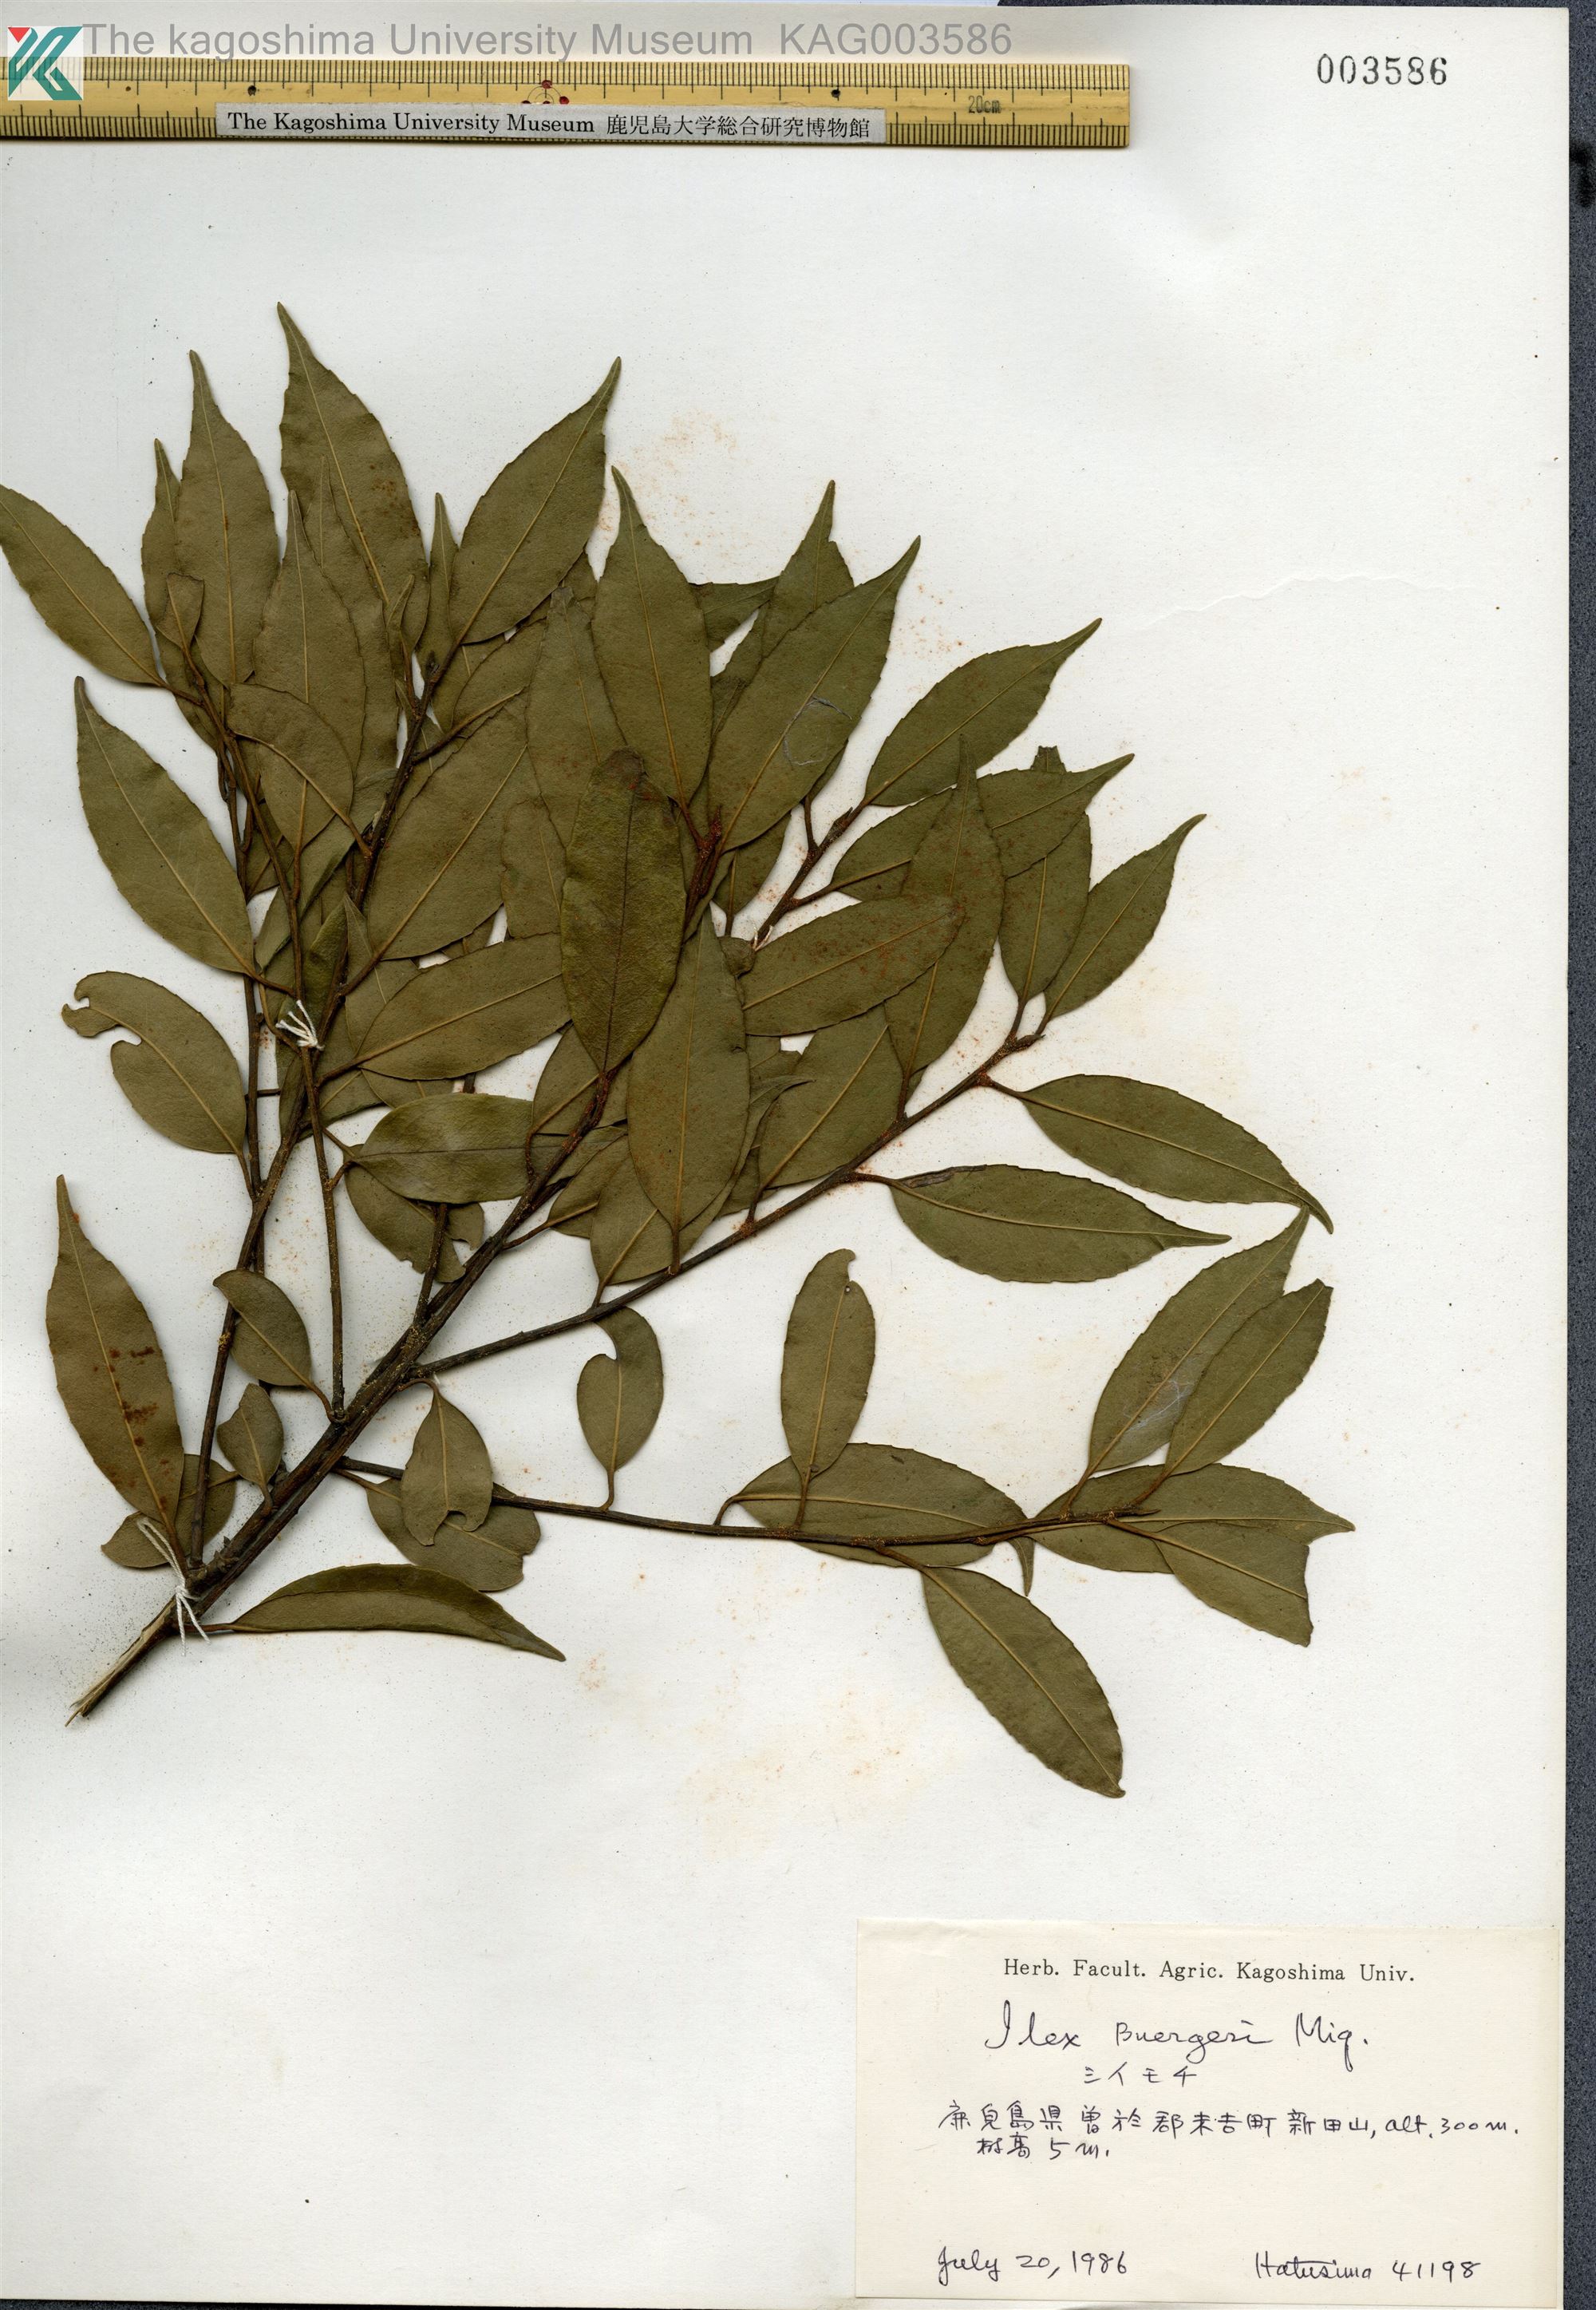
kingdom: Plantae
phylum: Tracheophyta
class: Magnoliopsida
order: Aquifoliales
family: Aquifoliaceae
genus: Ilex
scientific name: Ilex buergeri
